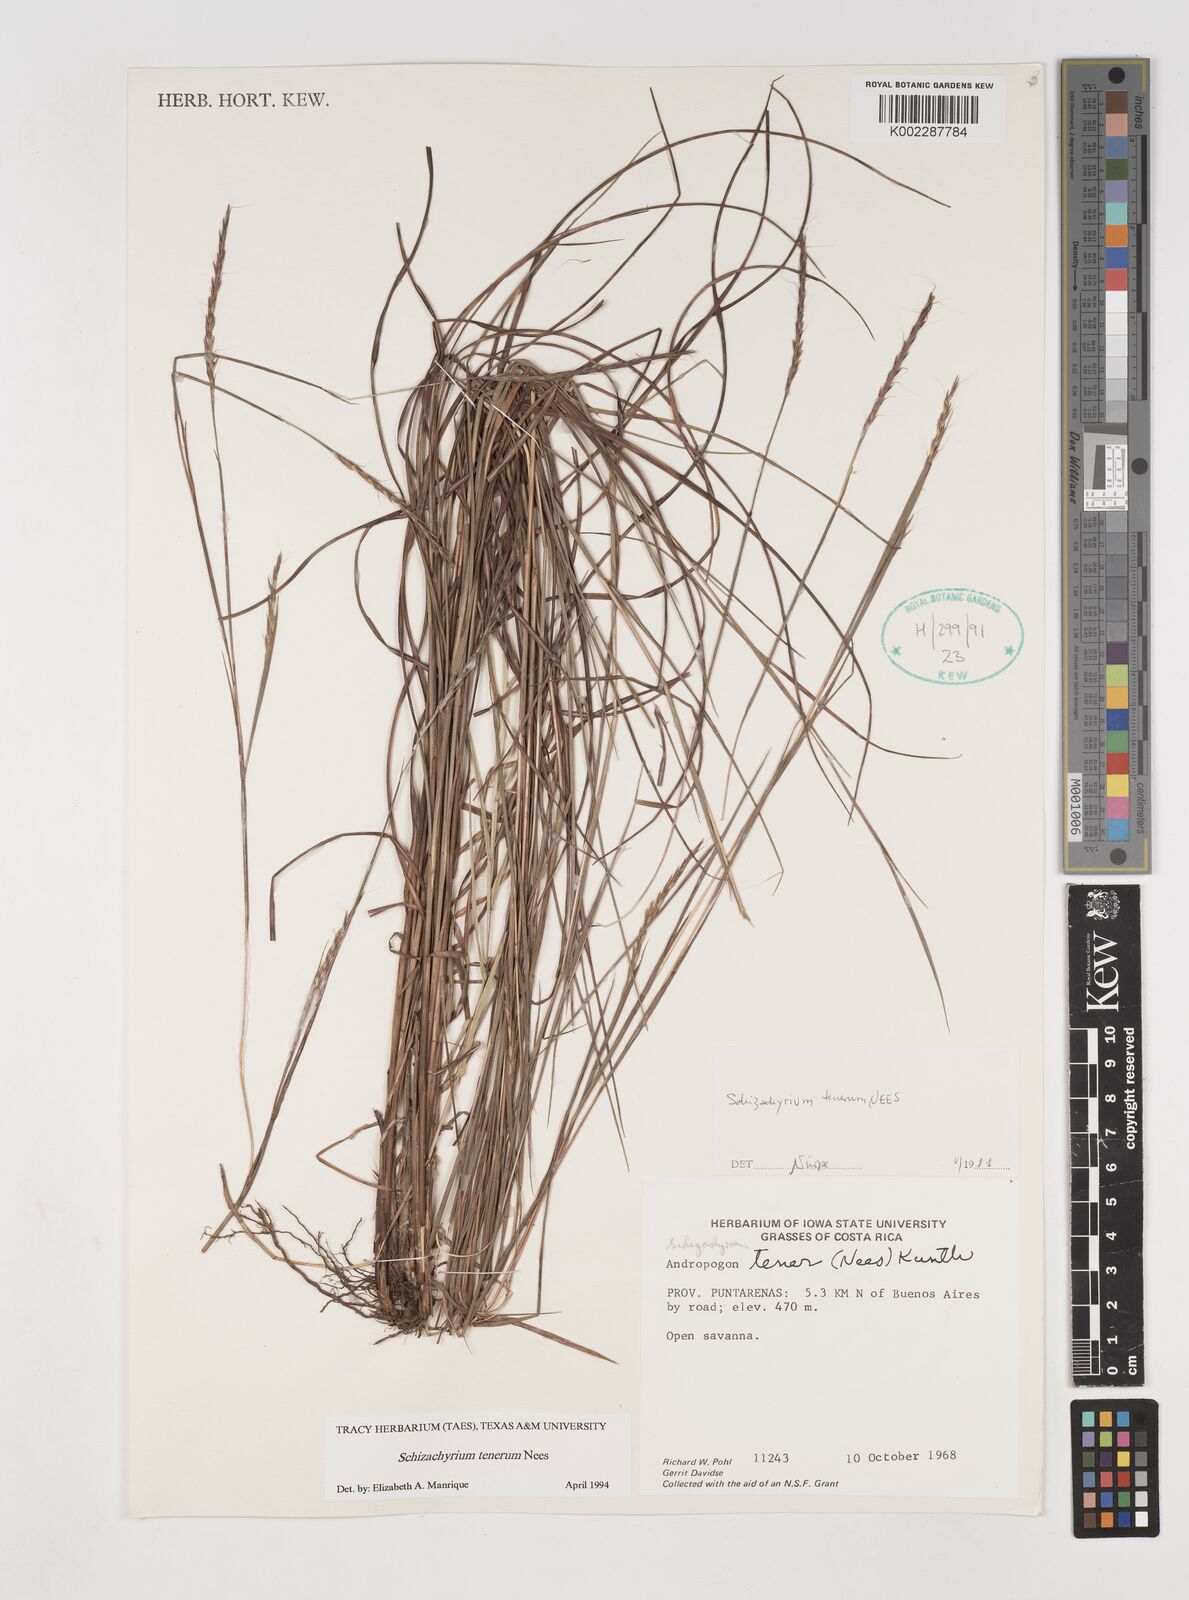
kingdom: Plantae
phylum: Tracheophyta
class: Liliopsida
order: Poales
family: Poaceae
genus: Andropogon
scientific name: Andropogon tener
